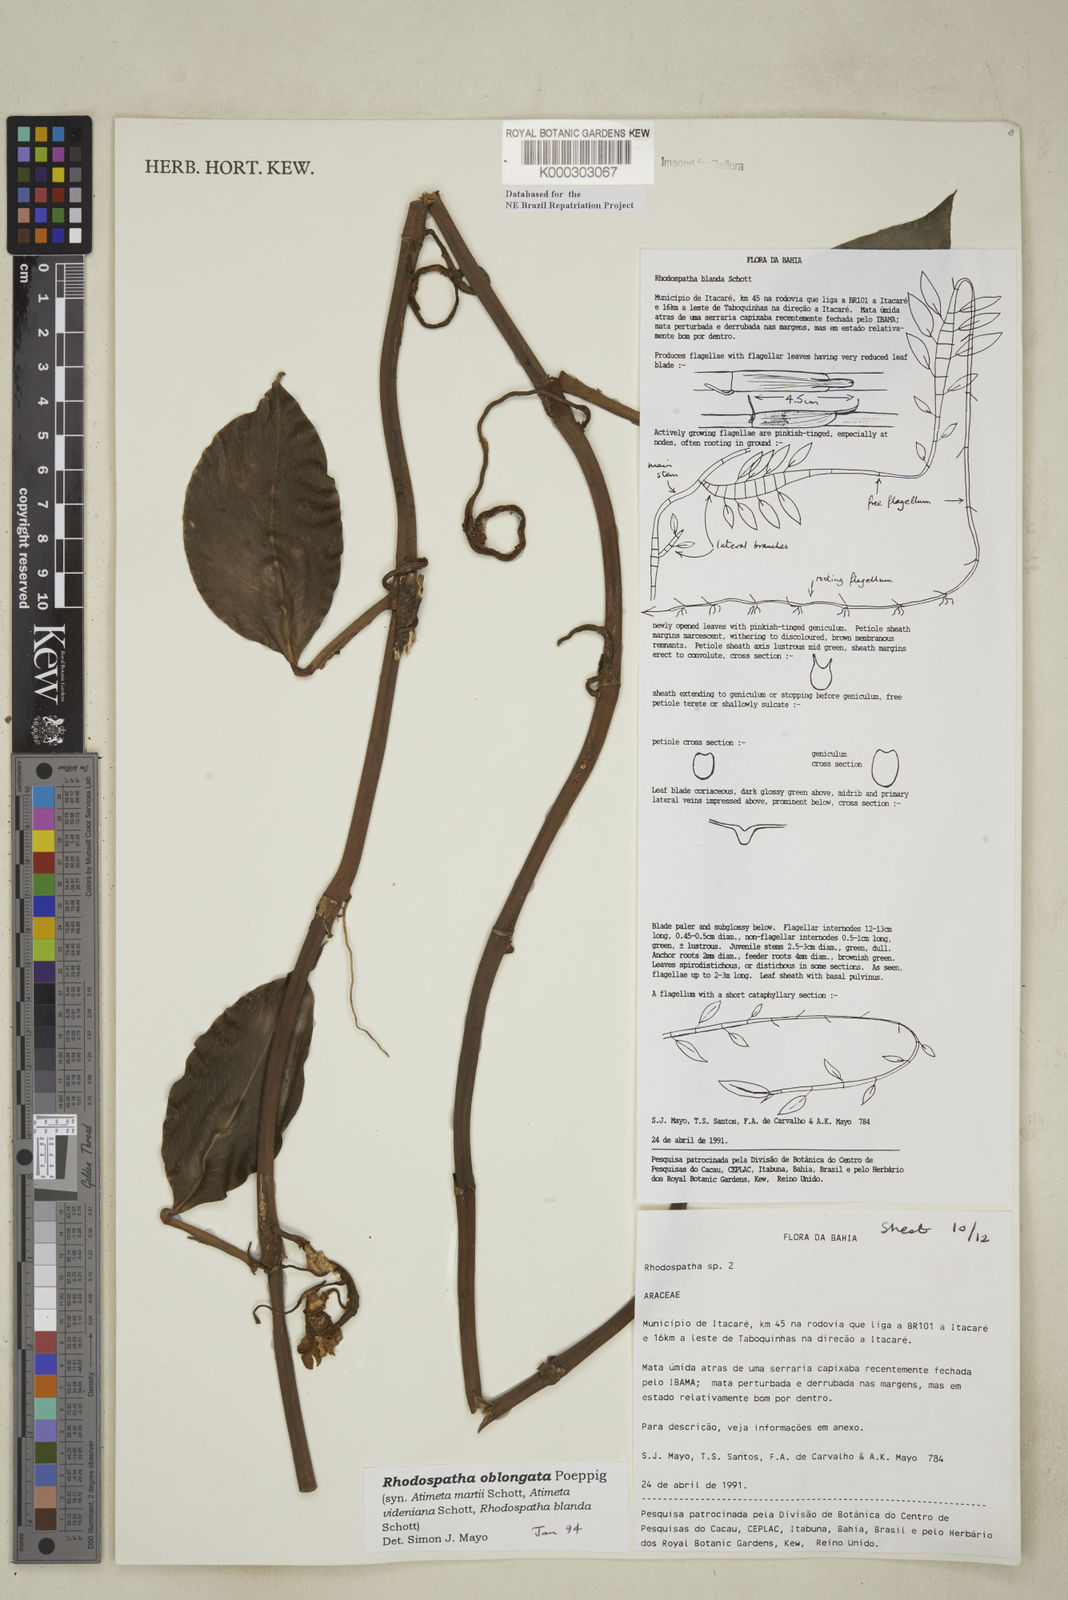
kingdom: Plantae
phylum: Tracheophyta
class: Liliopsida
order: Alismatales
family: Araceae
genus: Rhodospatha
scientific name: Rhodospatha oblongata
